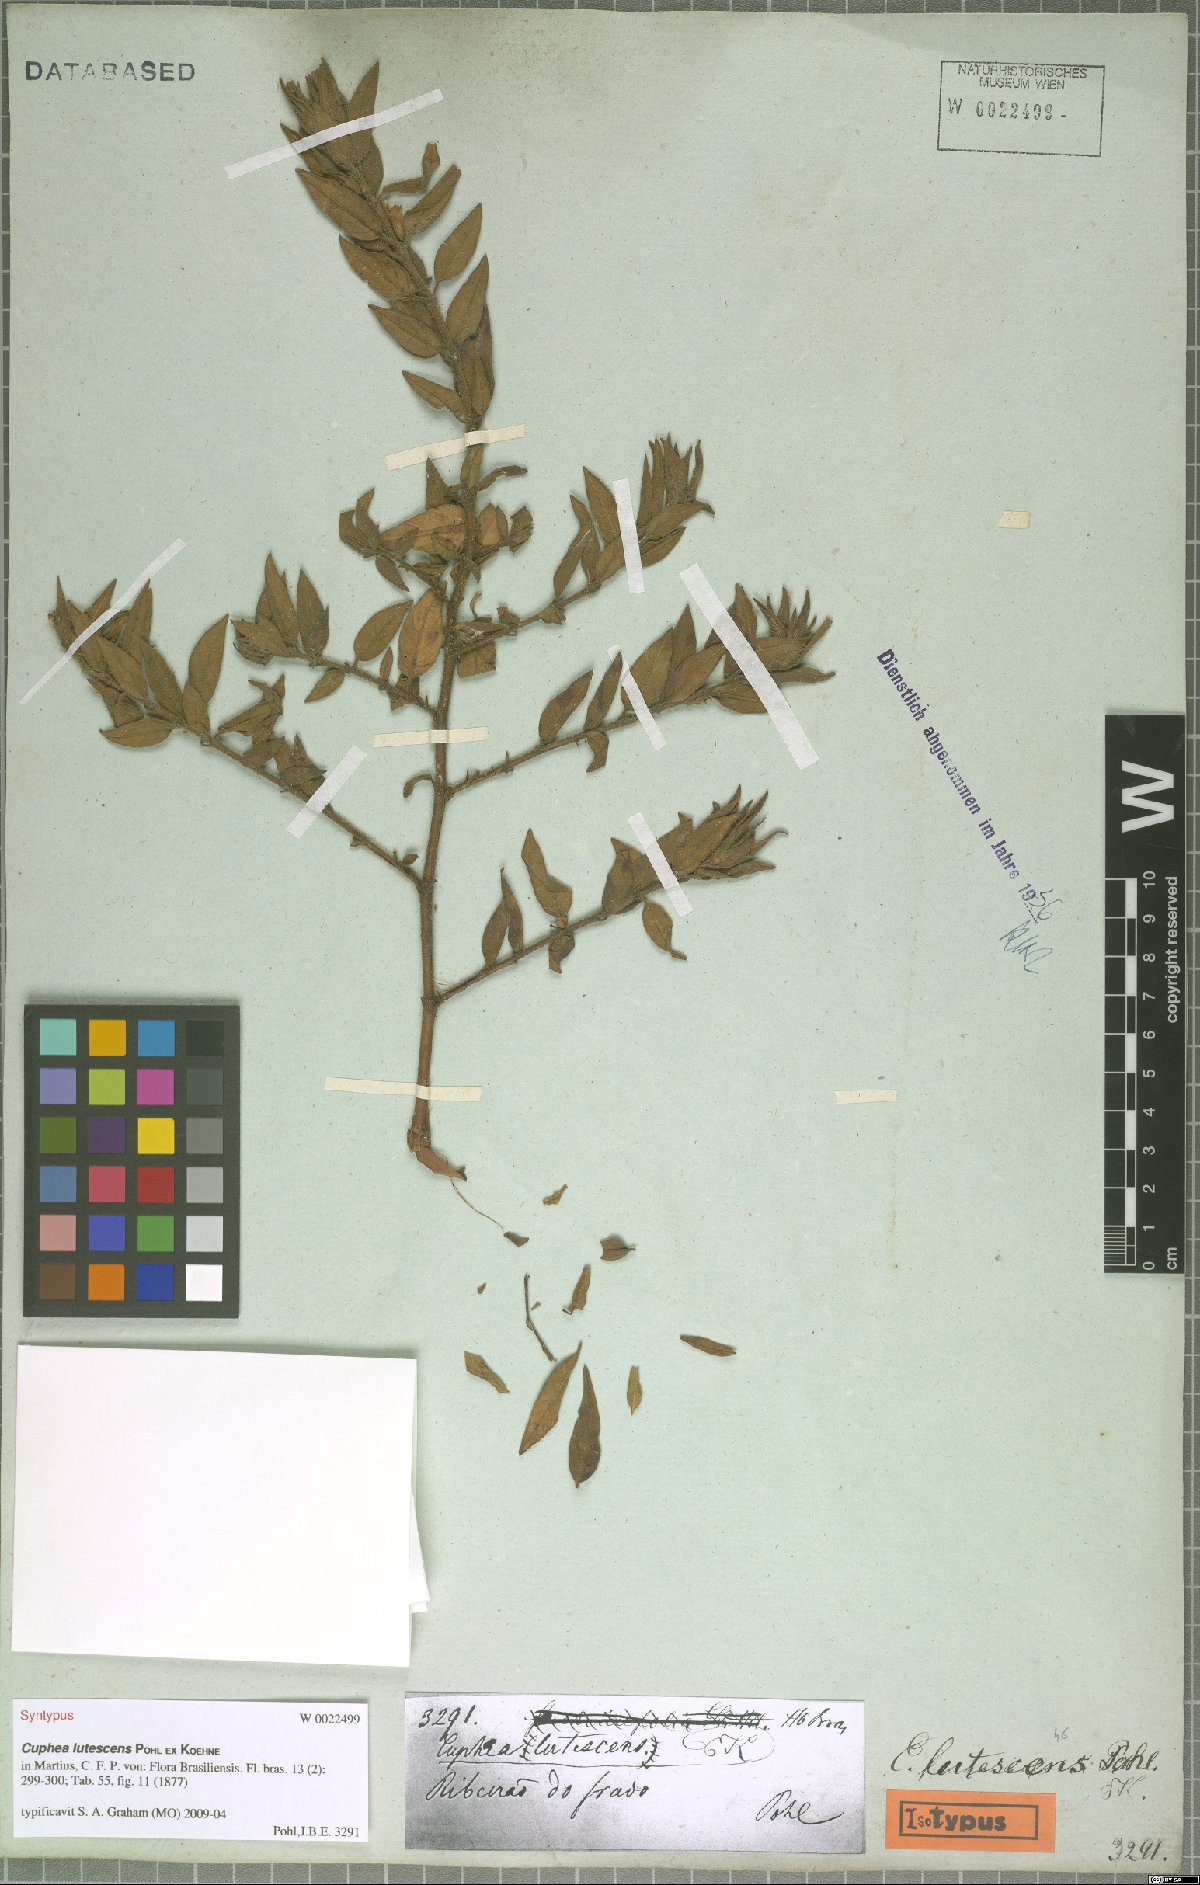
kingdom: Plantae
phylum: Tracheophyta
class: Magnoliopsida
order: Myrtales
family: Lythraceae
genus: Cuphea
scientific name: Cuphea lutescens
